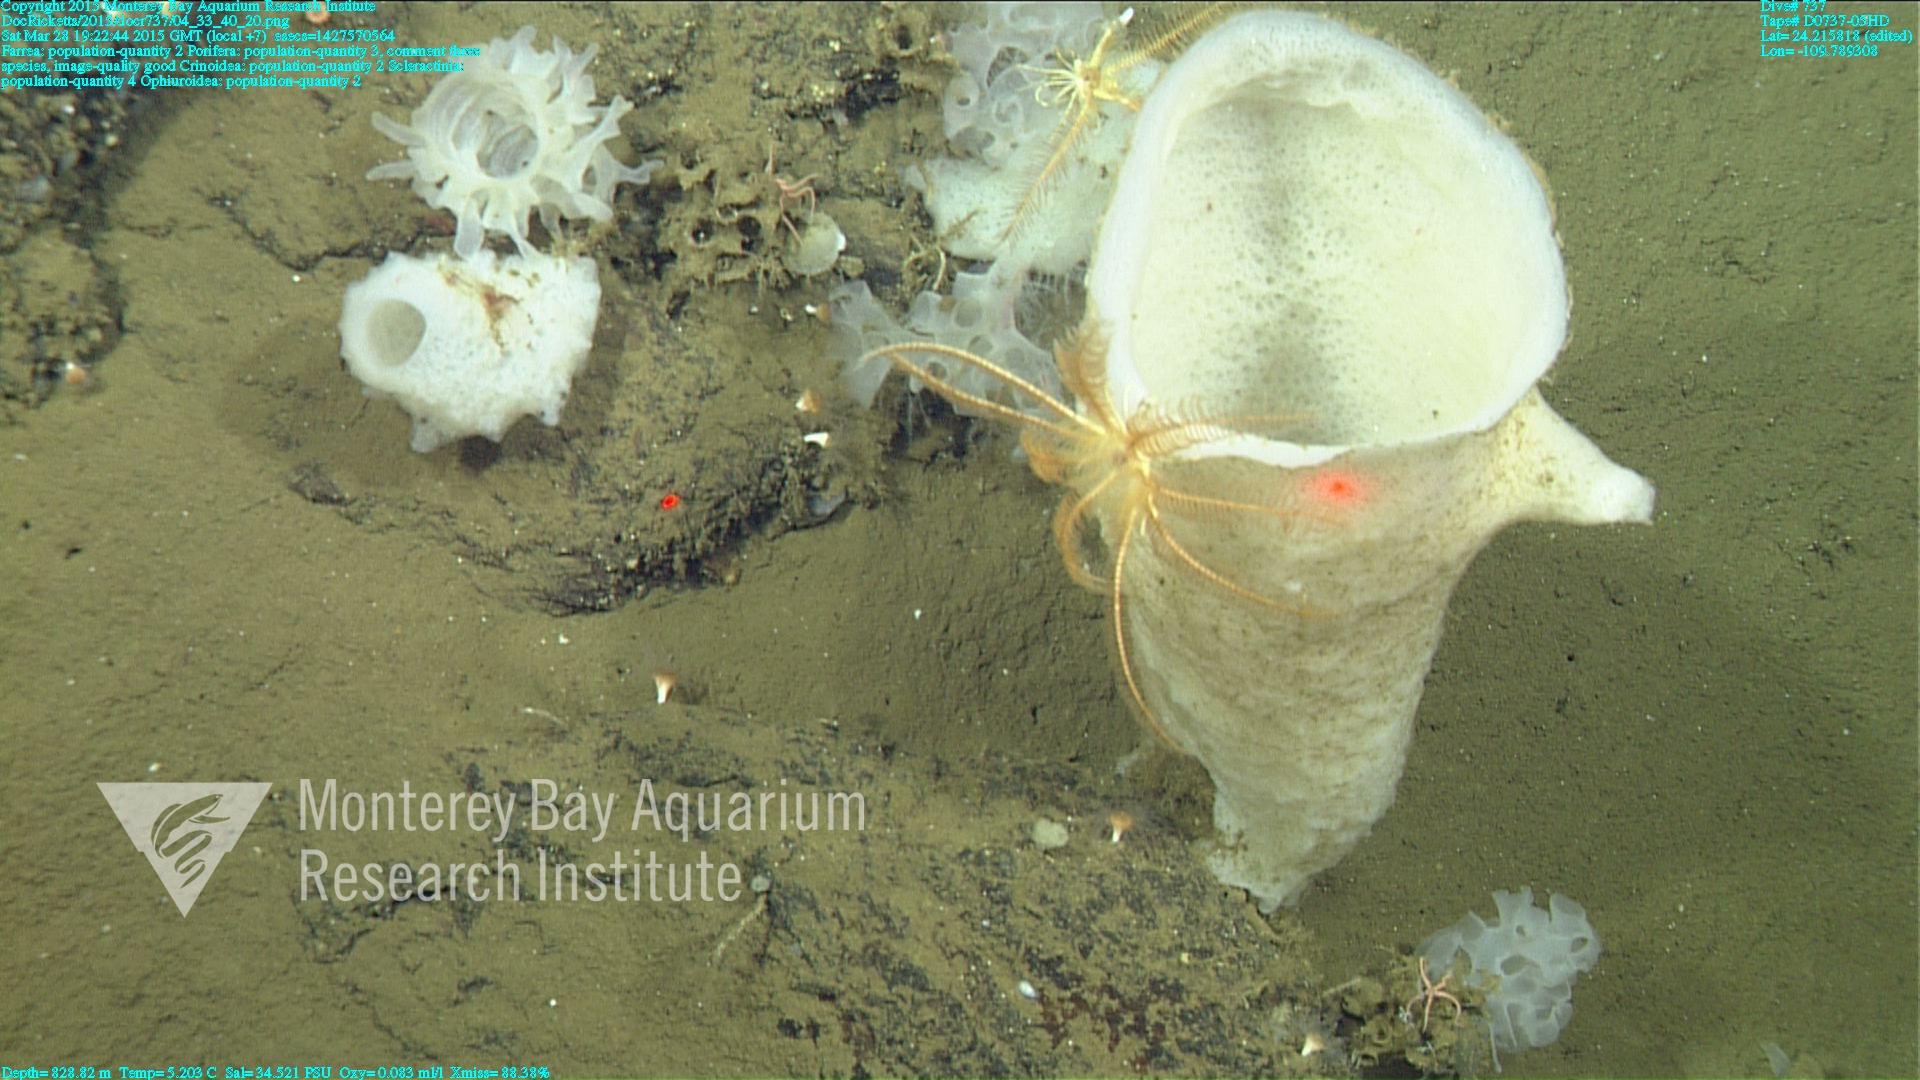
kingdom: Animalia
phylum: Cnidaria
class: Anthozoa
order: Scleractinia
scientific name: Scleractinia
